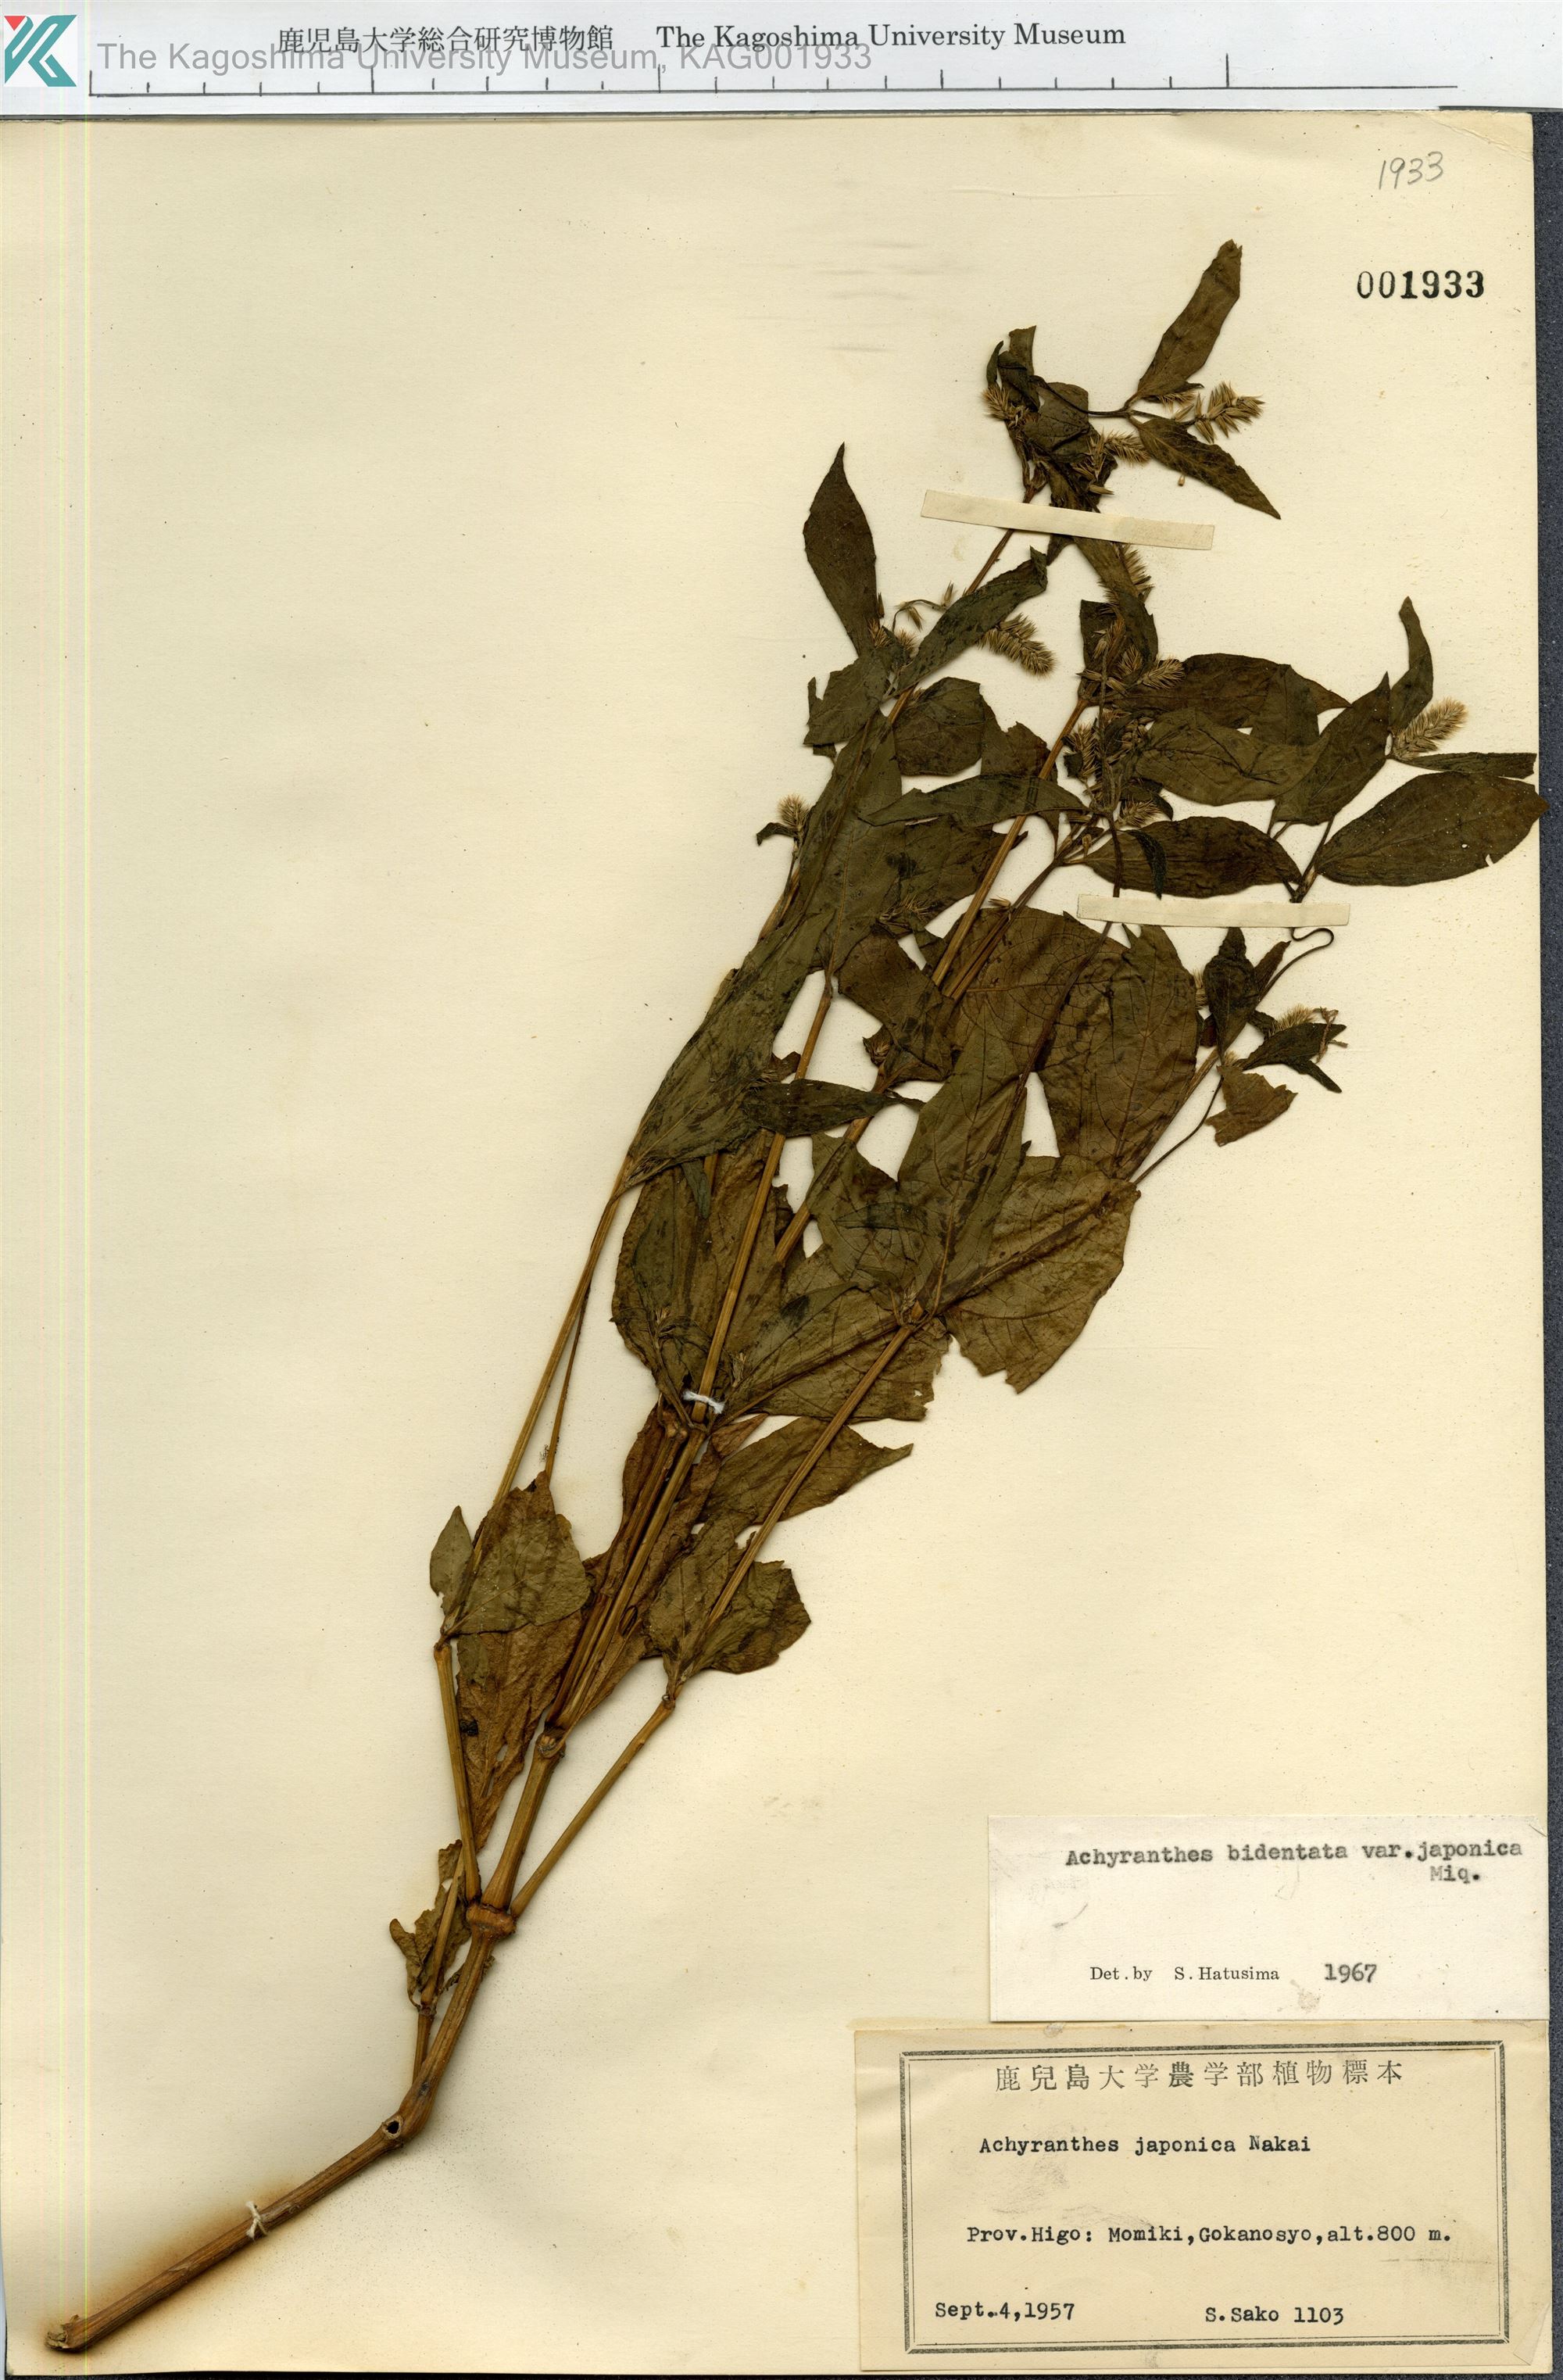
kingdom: Plantae
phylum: Tracheophyta
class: Magnoliopsida
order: Caryophyllales
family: Amaranthaceae
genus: Achyranthes
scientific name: Achyranthes bidentata
